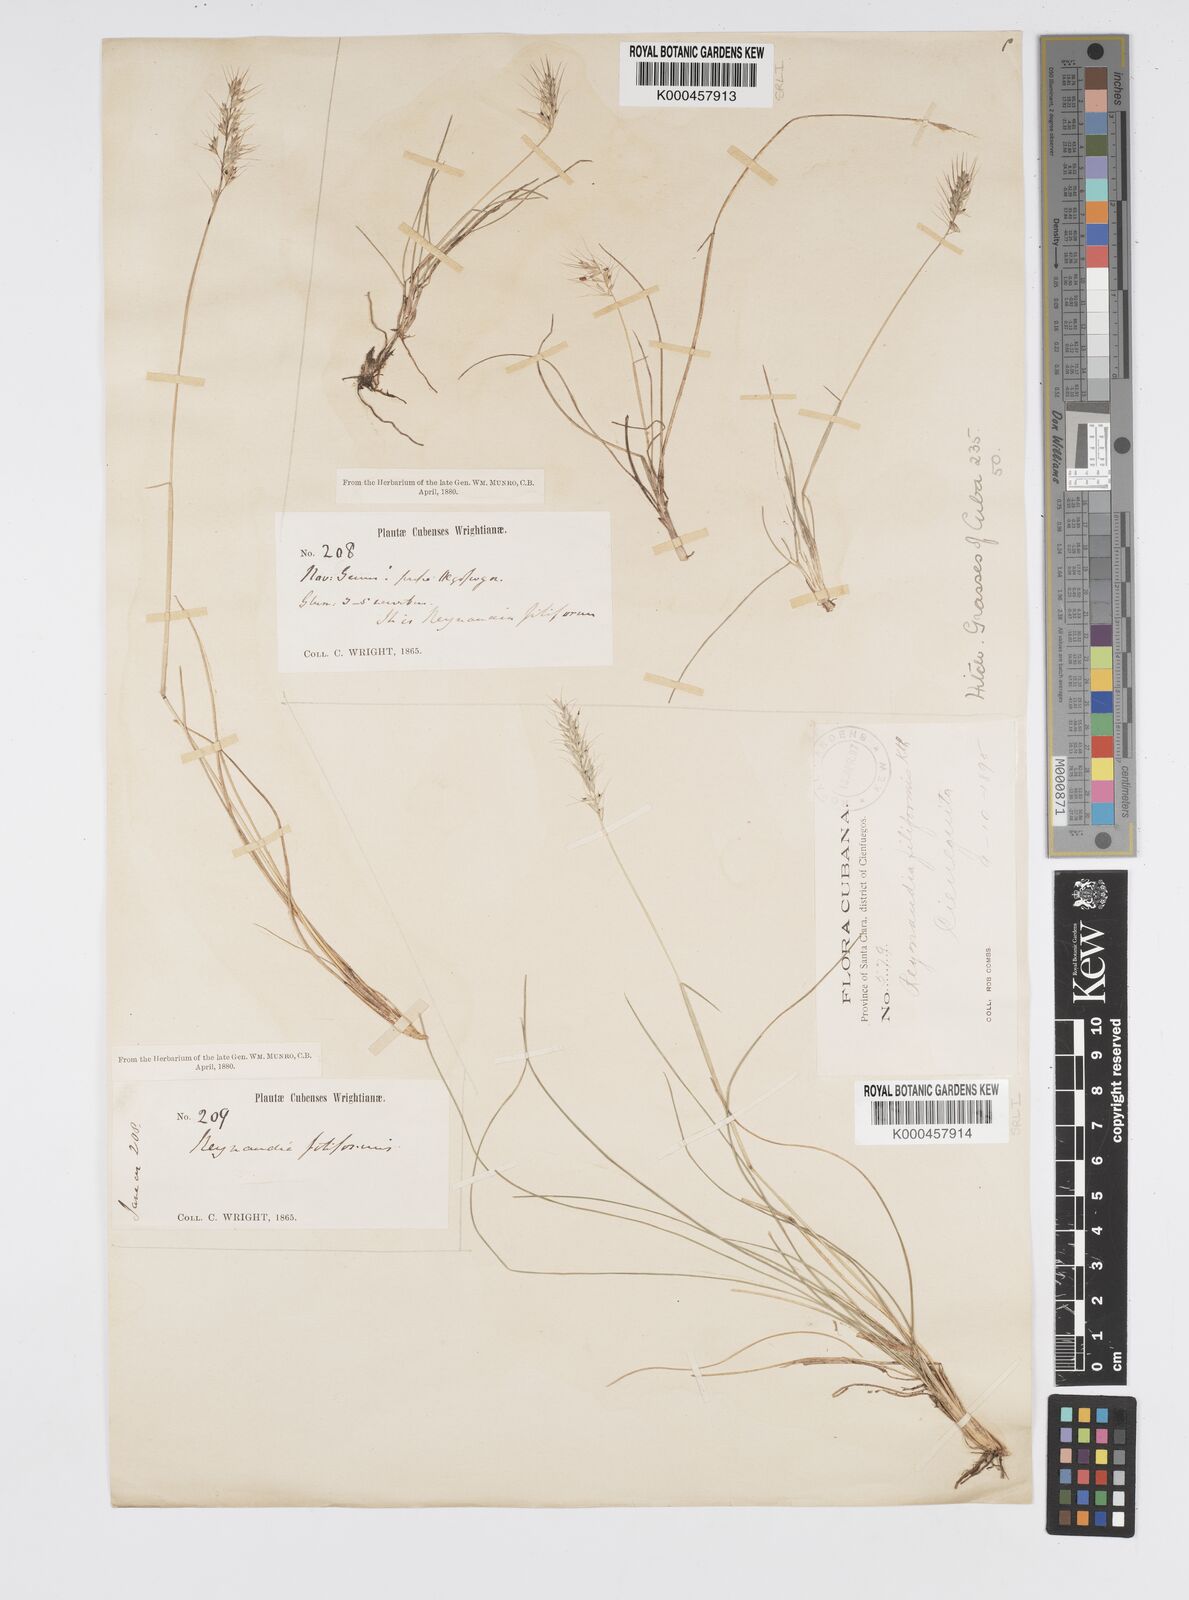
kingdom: Plantae
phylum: Tracheophyta
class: Liliopsida
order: Poales
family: Poaceae
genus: Reynaudia
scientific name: Reynaudia filiformis
